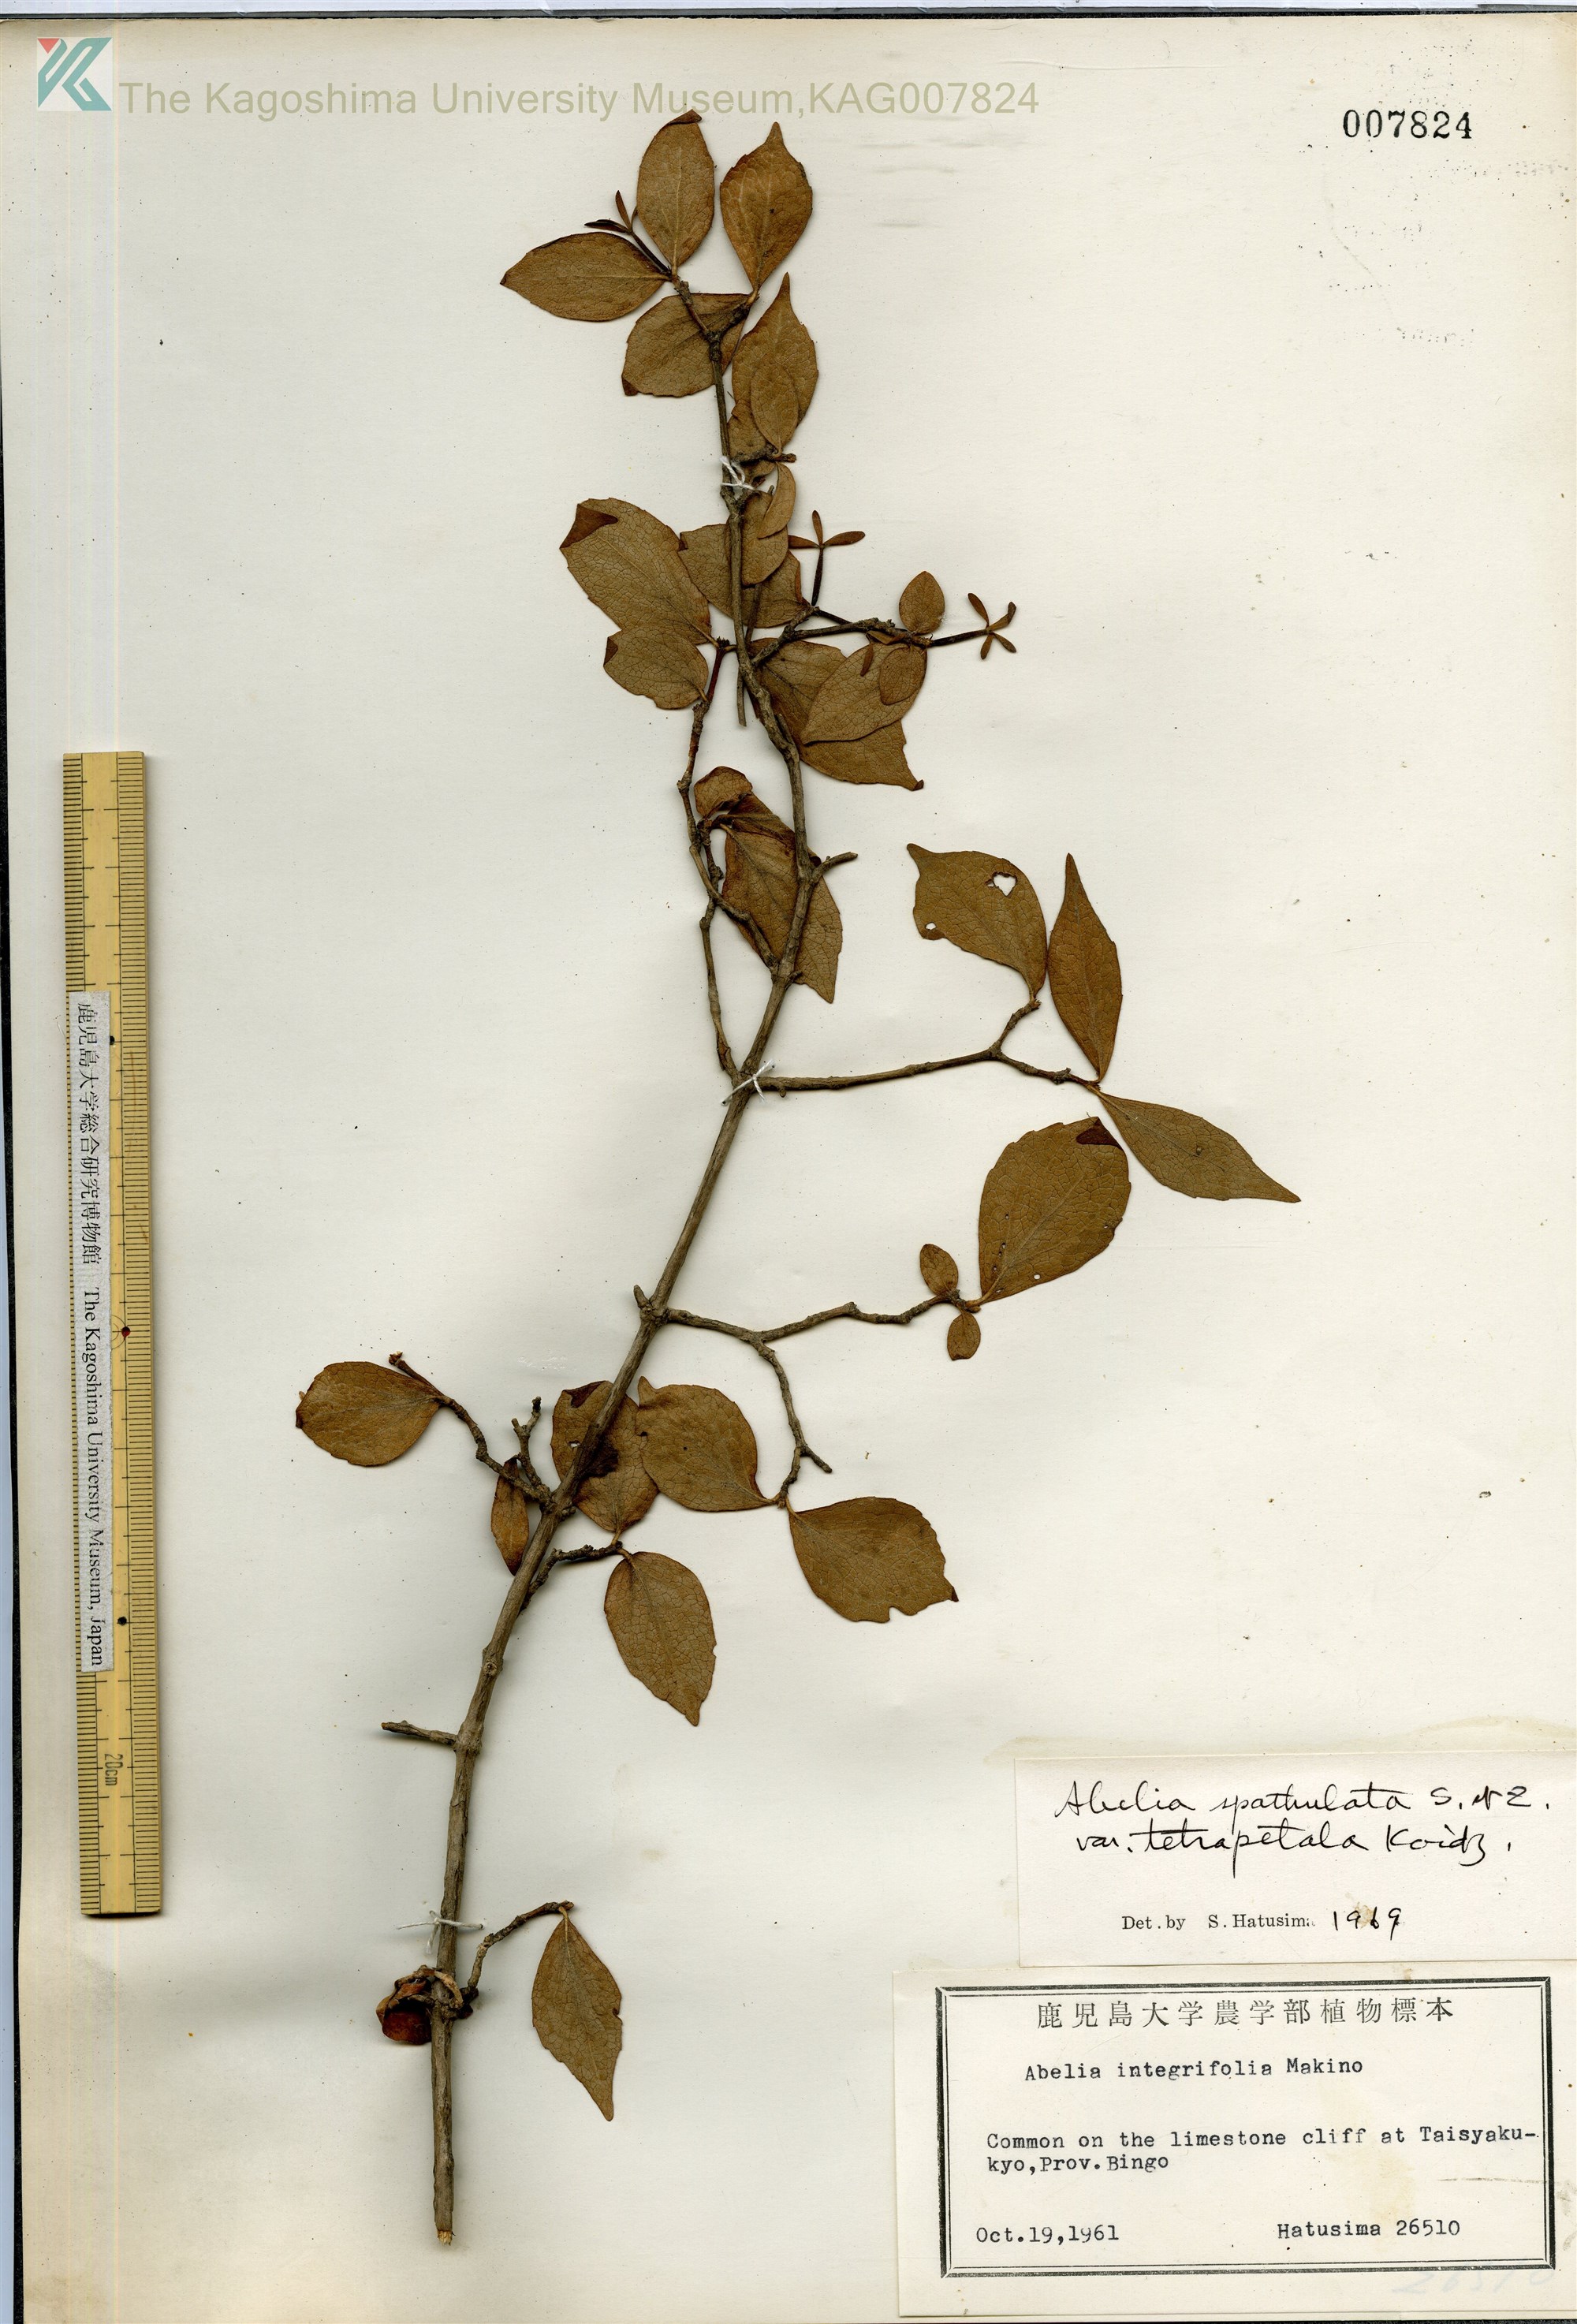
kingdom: Plantae
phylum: Tracheophyta
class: Magnoliopsida
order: Dipsacales
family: Caprifoliaceae
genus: Diabelia
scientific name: Diabelia ionostachya
